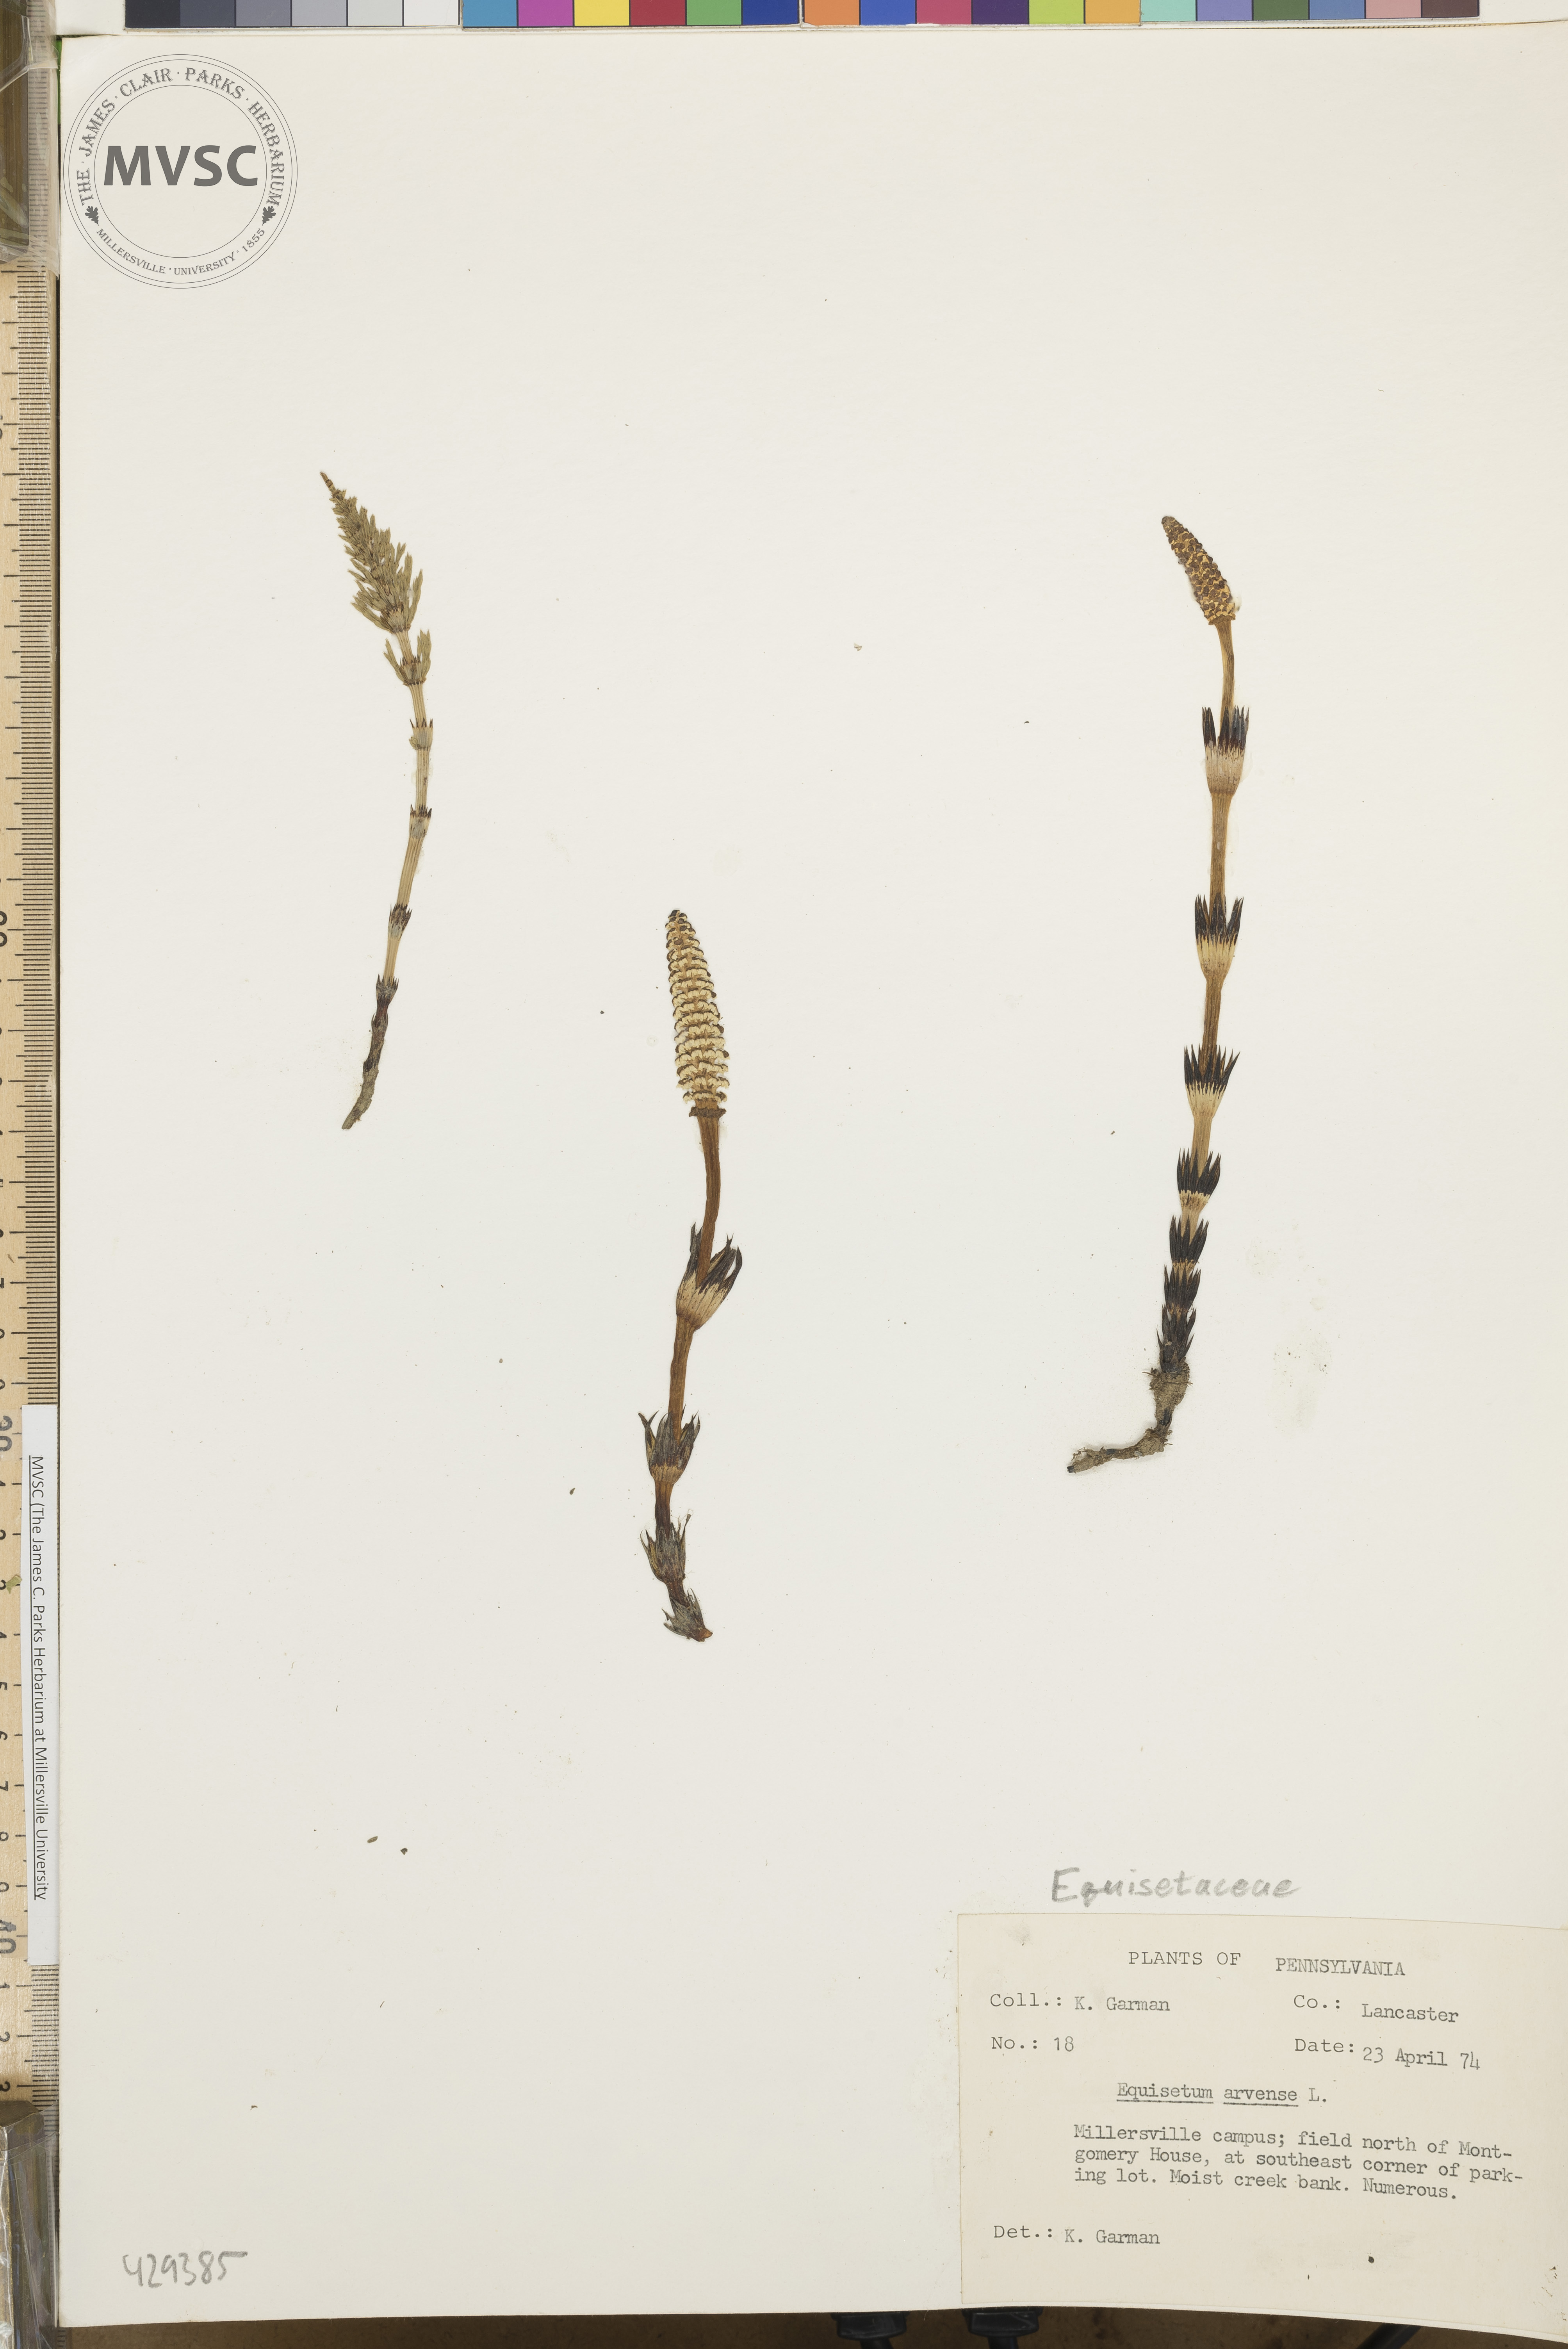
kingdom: Plantae
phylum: Tracheophyta
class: Polypodiopsida
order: Equisetales
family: Equisetaceae
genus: Equisetum
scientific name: Equisetum arvense
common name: Field horsetail
